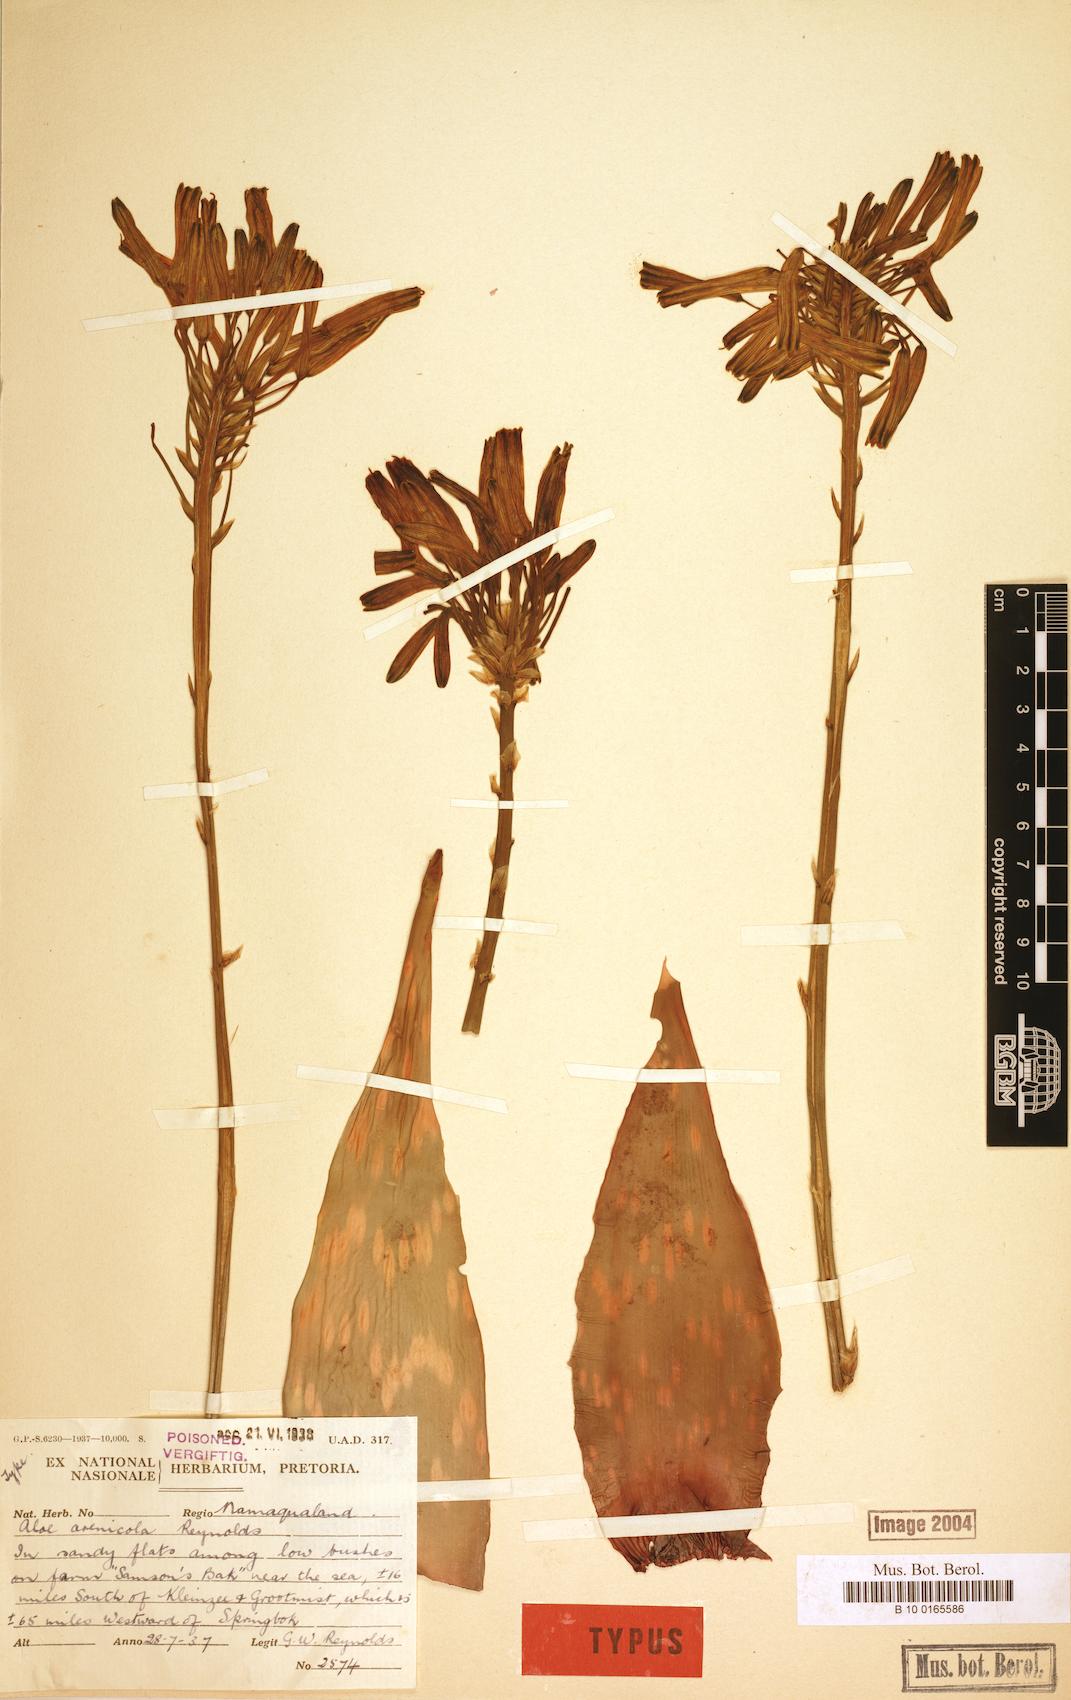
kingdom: Plantae
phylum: Tracheophyta
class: Liliopsida
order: Asparagales
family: Asphodelaceae
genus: Aloe
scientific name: Aloe arenicola
